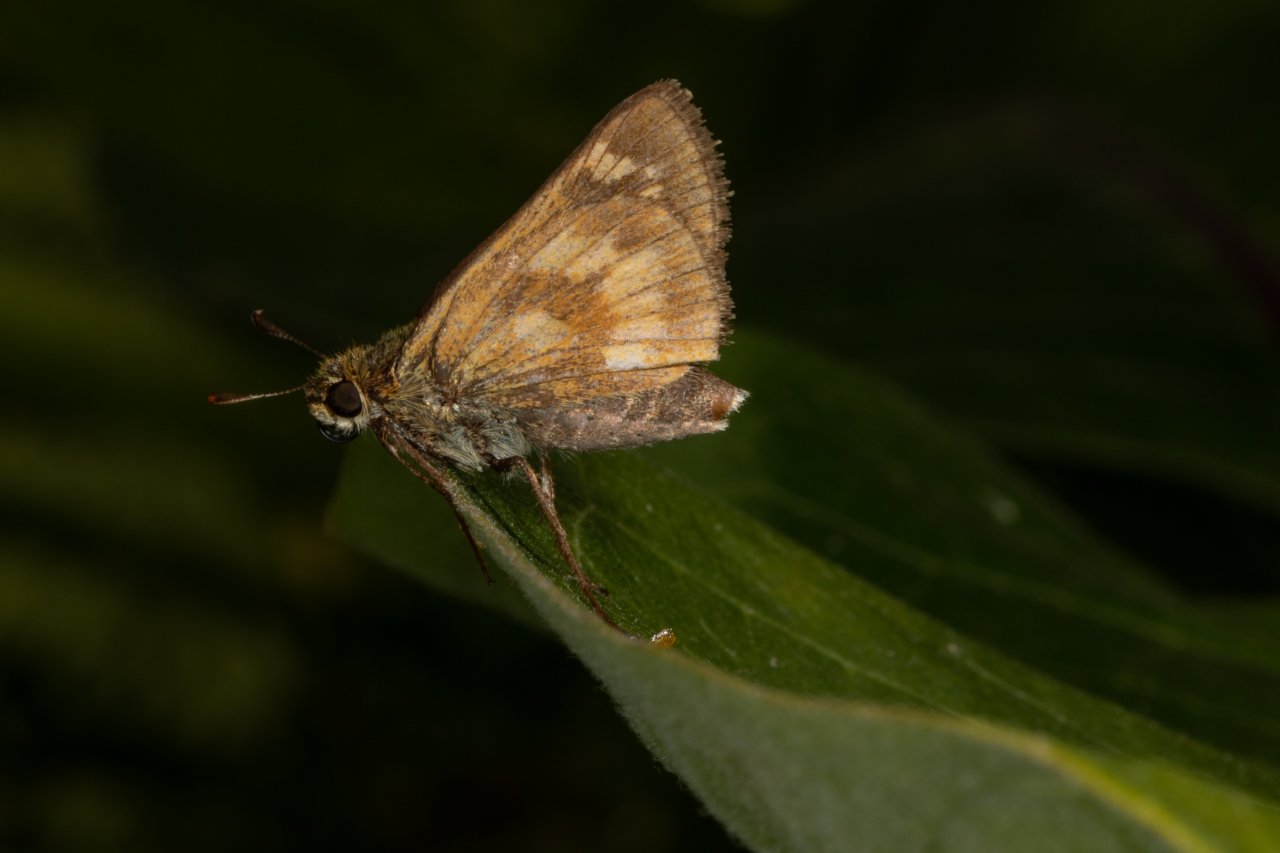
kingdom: Animalia
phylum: Arthropoda
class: Insecta
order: Lepidoptera
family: Hesperiidae
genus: Polites
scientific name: Polites
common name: Long Dash Skipper
